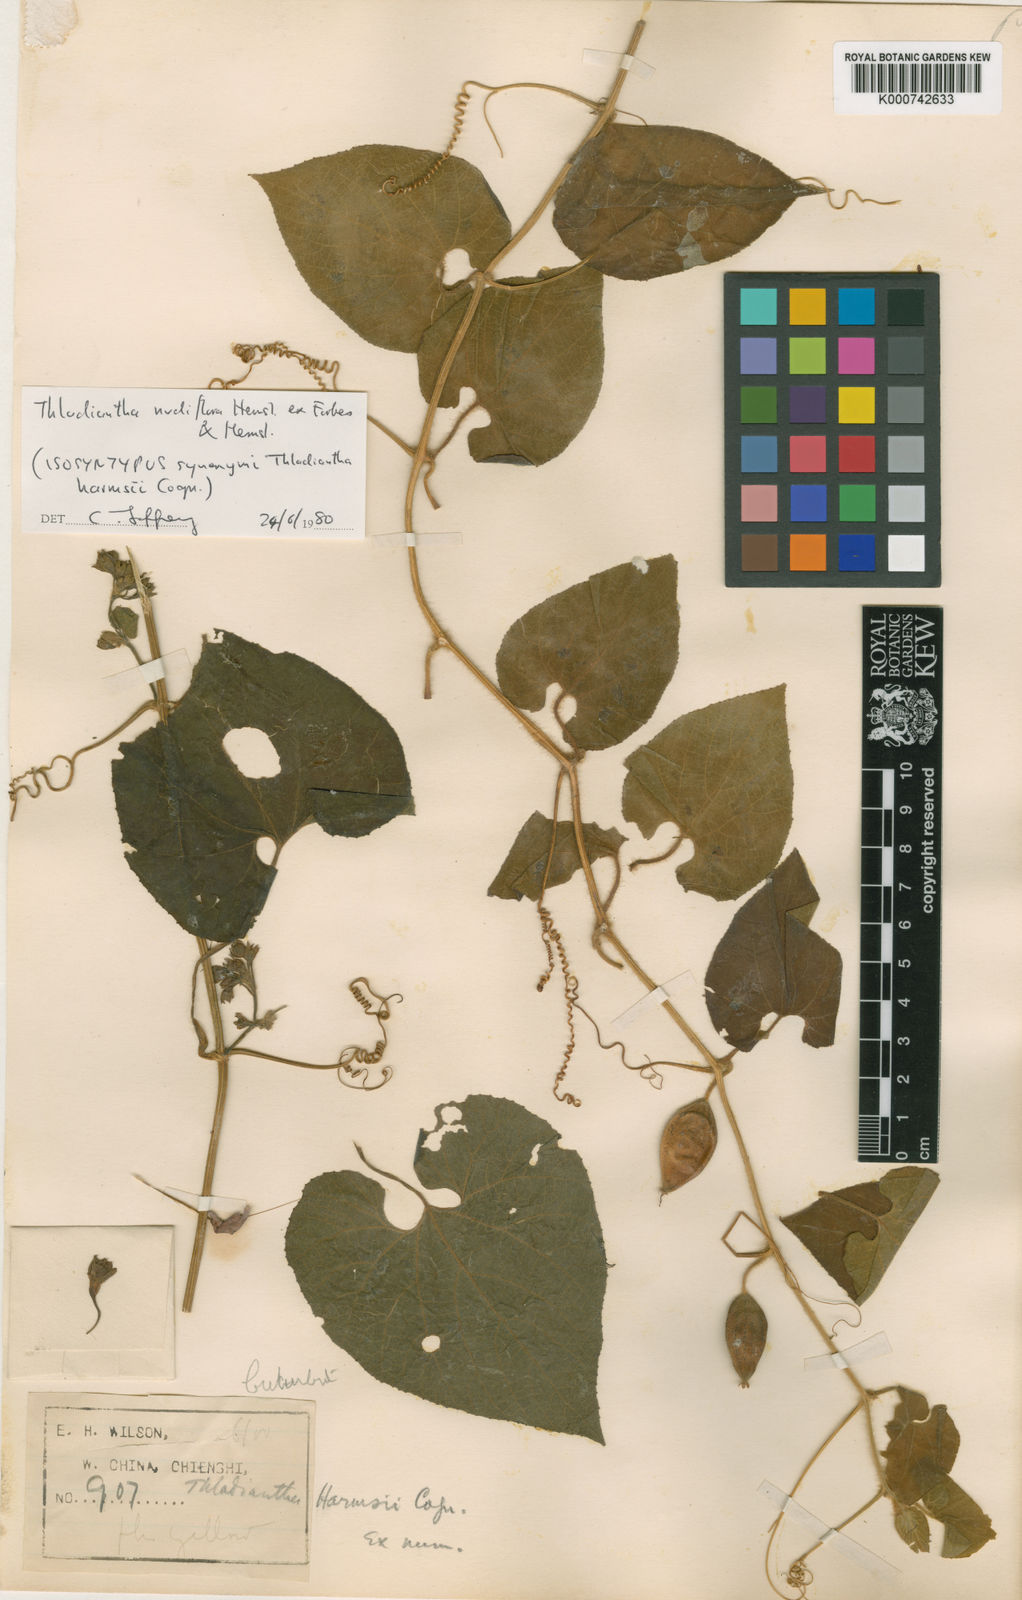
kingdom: Plantae
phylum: Tracheophyta
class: Magnoliopsida
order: Cucurbitales
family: Cucurbitaceae
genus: Thladiantha
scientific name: Thladiantha nudiflora
